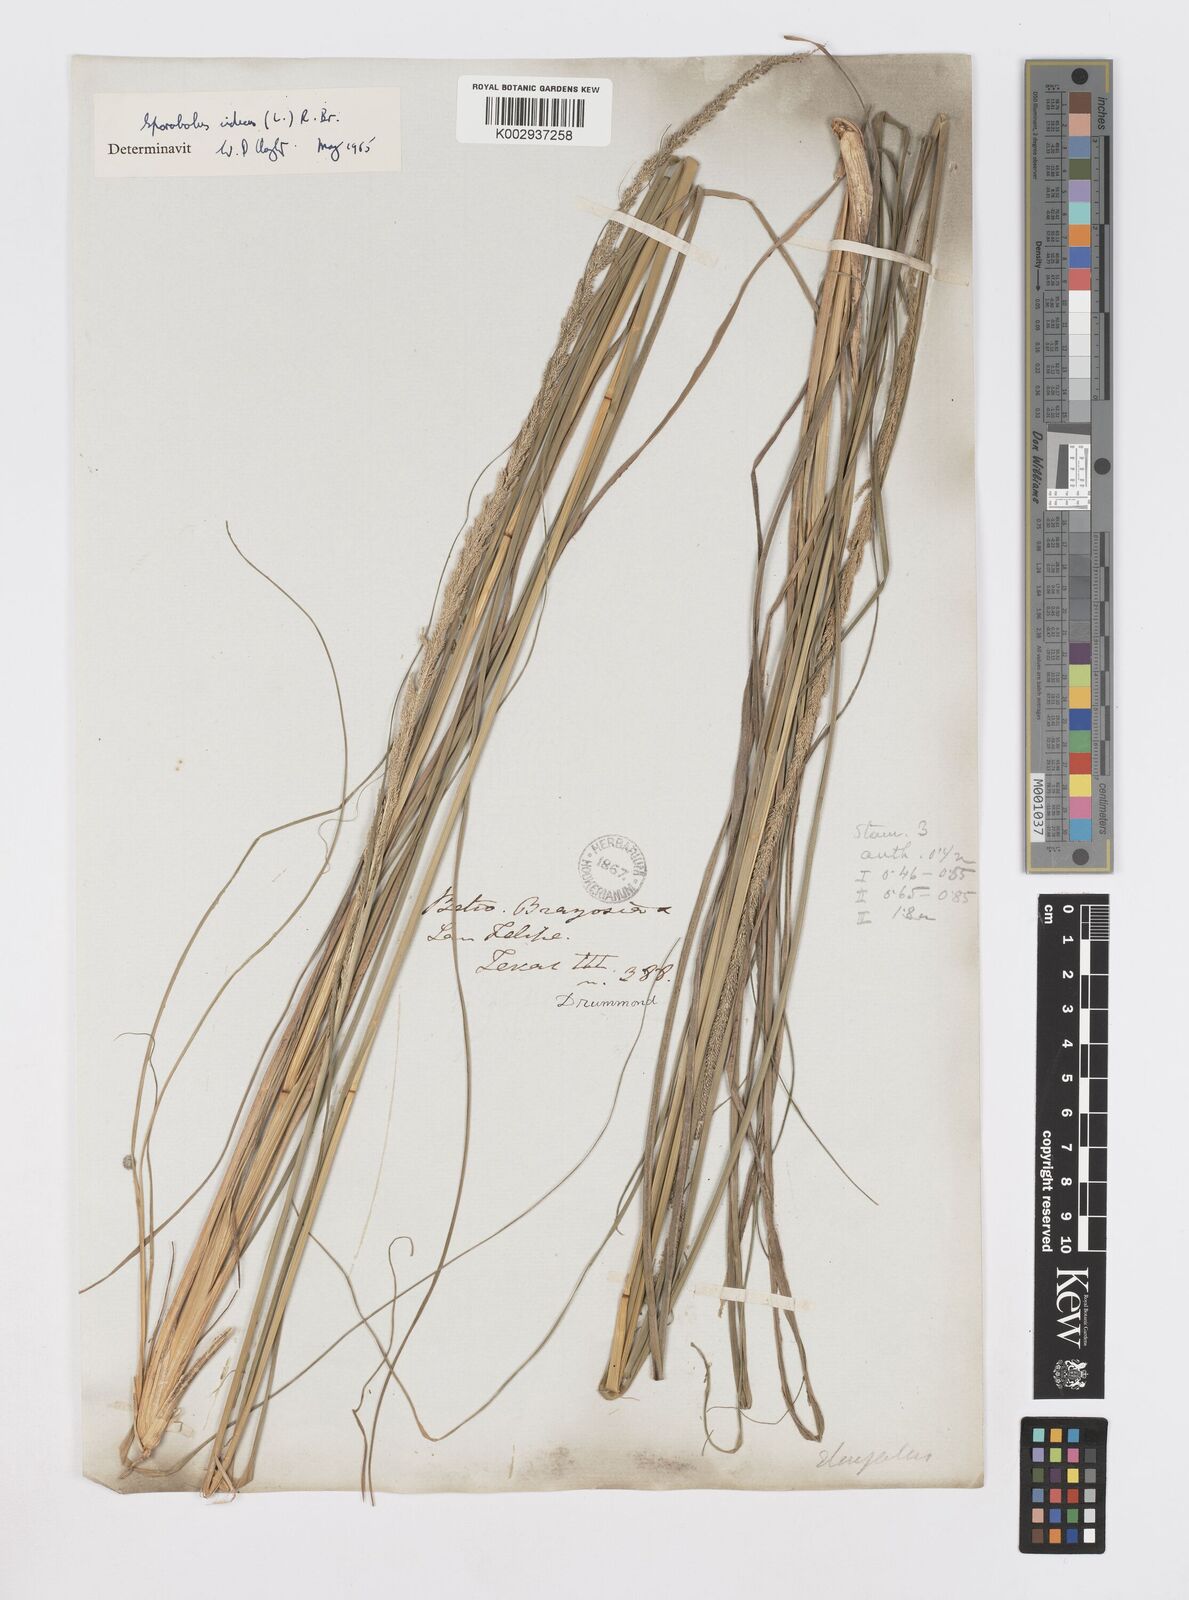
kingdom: Plantae
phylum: Tracheophyta
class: Liliopsida
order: Poales
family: Poaceae
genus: Sporobolus
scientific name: Sporobolus indicus
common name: Smut grass
